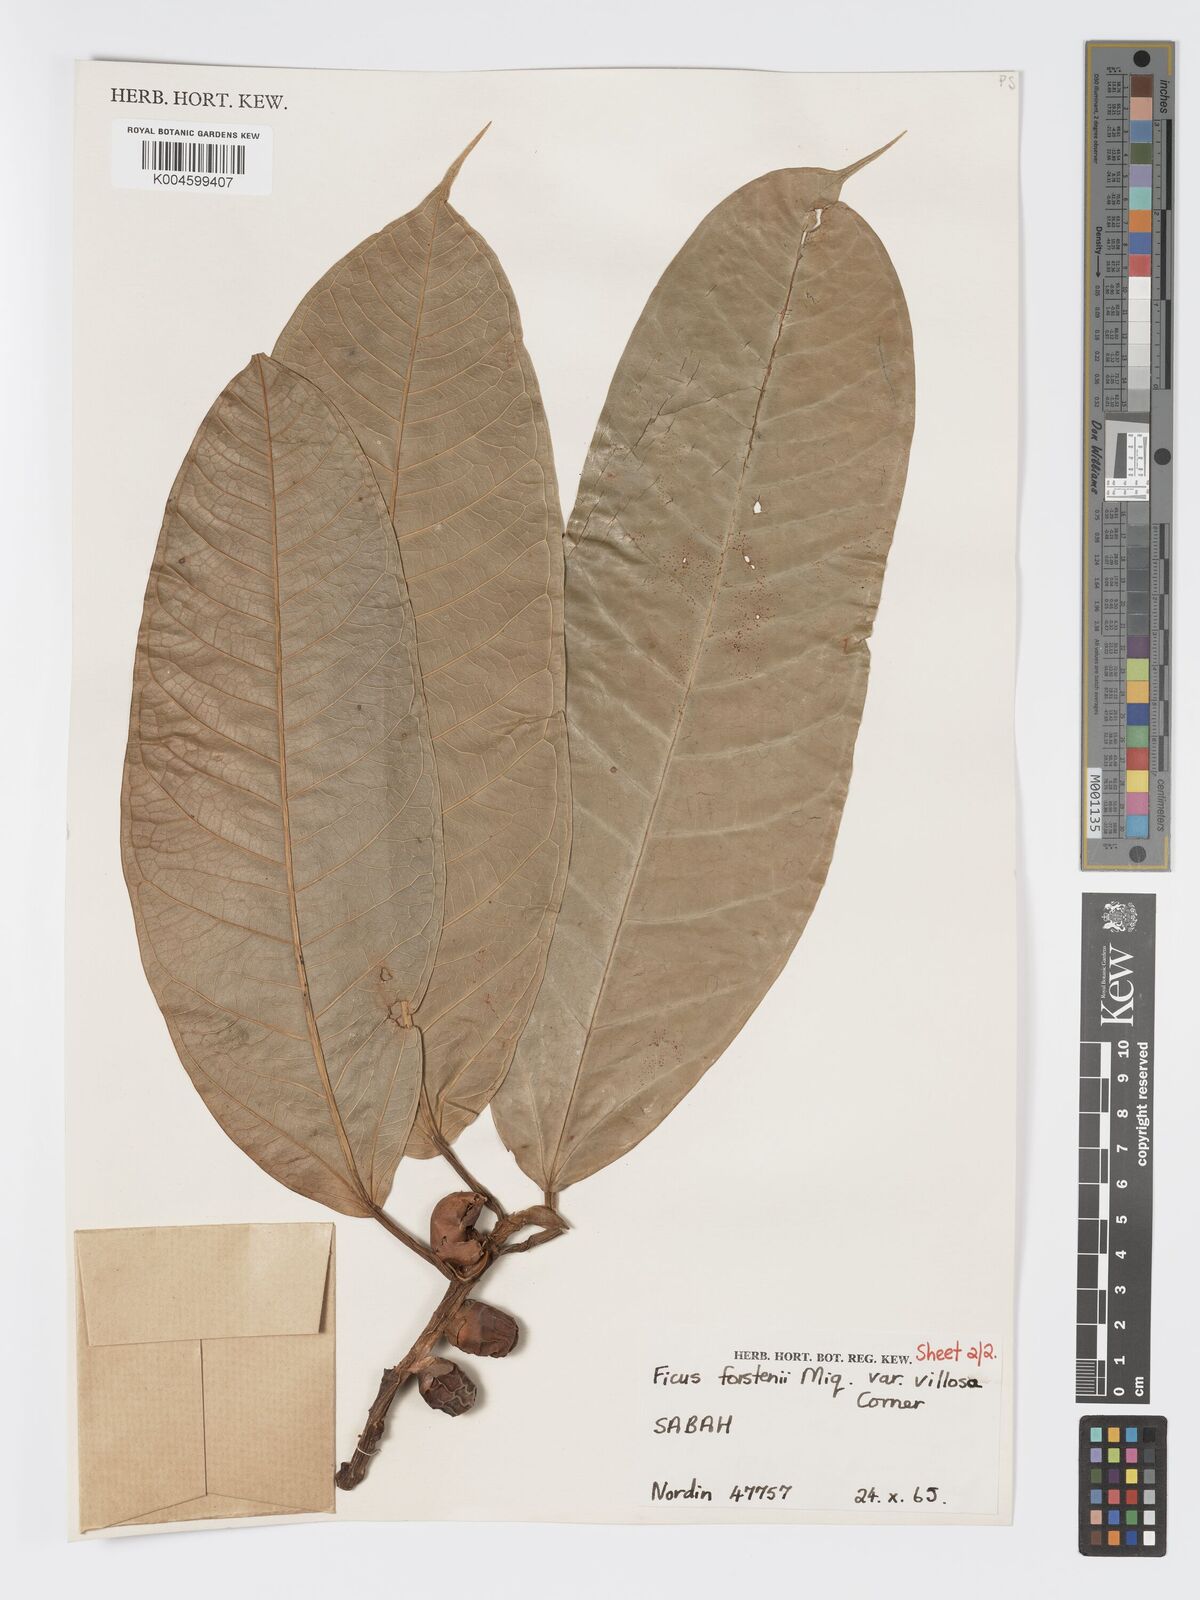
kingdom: Plantae
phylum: Tracheophyta
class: Magnoliopsida
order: Rosales
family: Moraceae
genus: Ficus
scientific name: Ficus forstenii
